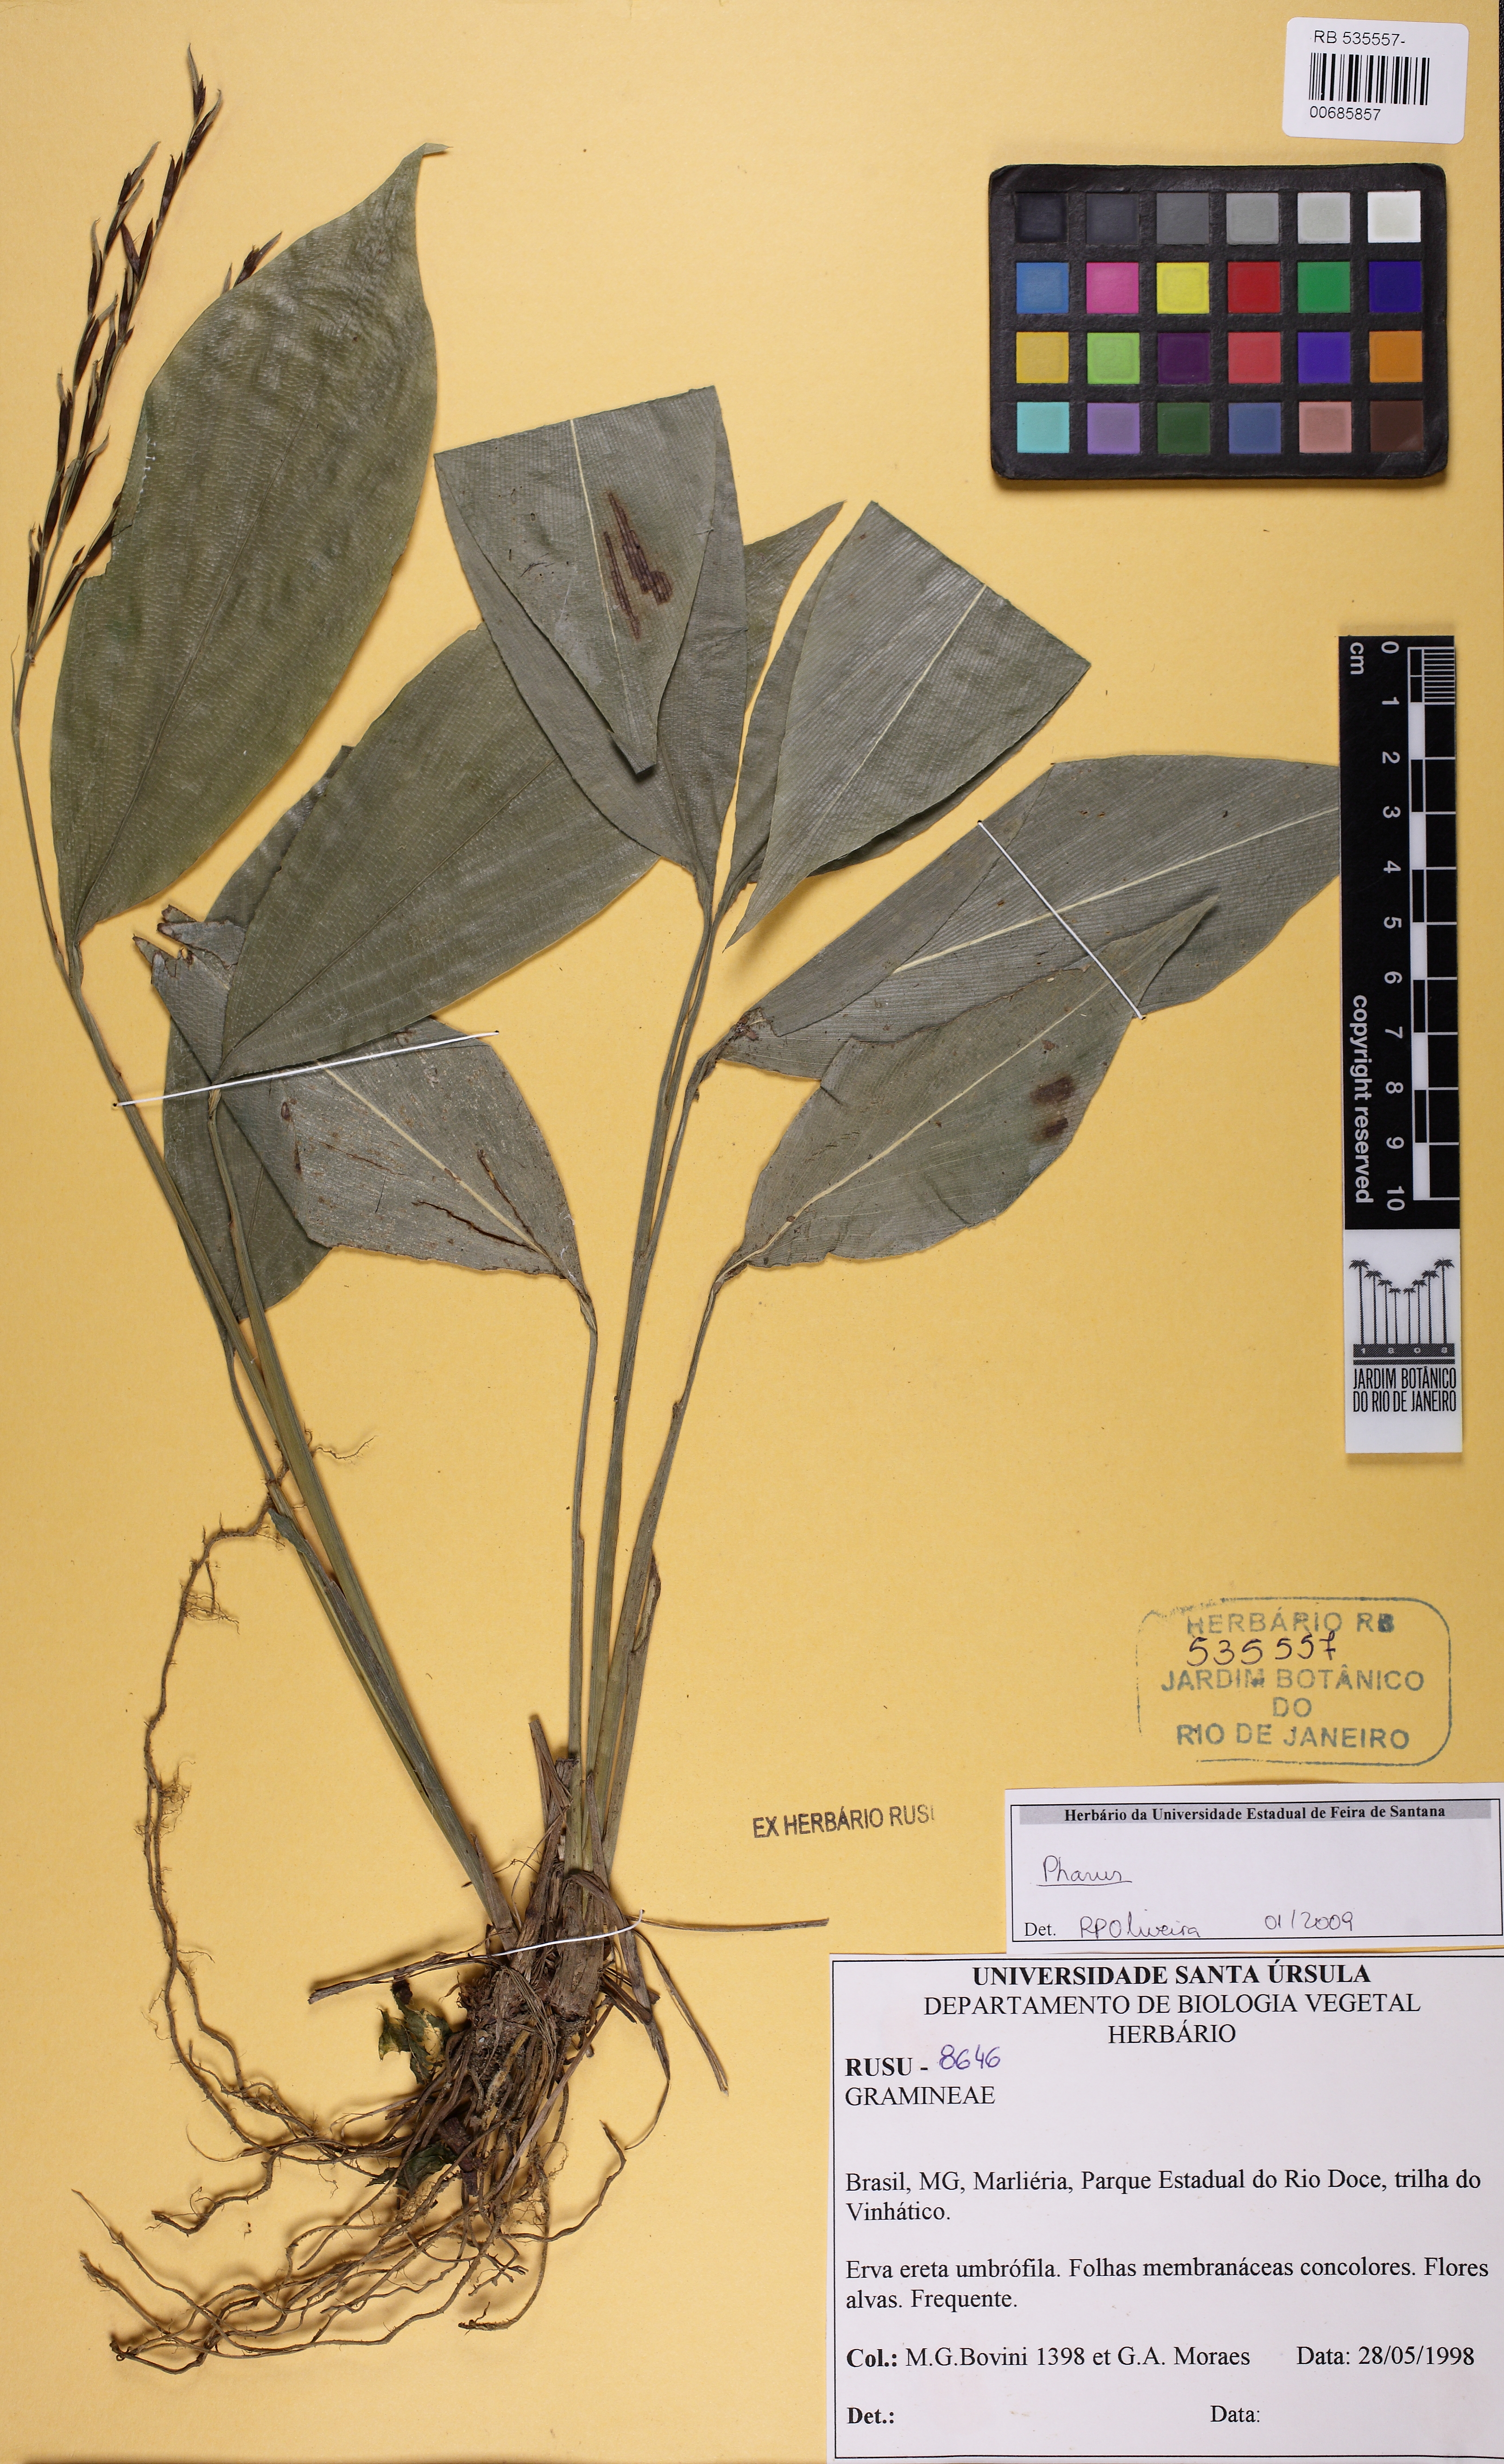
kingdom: Plantae
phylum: Tracheophyta
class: Liliopsida
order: Poales
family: Poaceae
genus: Pharus
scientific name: Pharus latifolius
